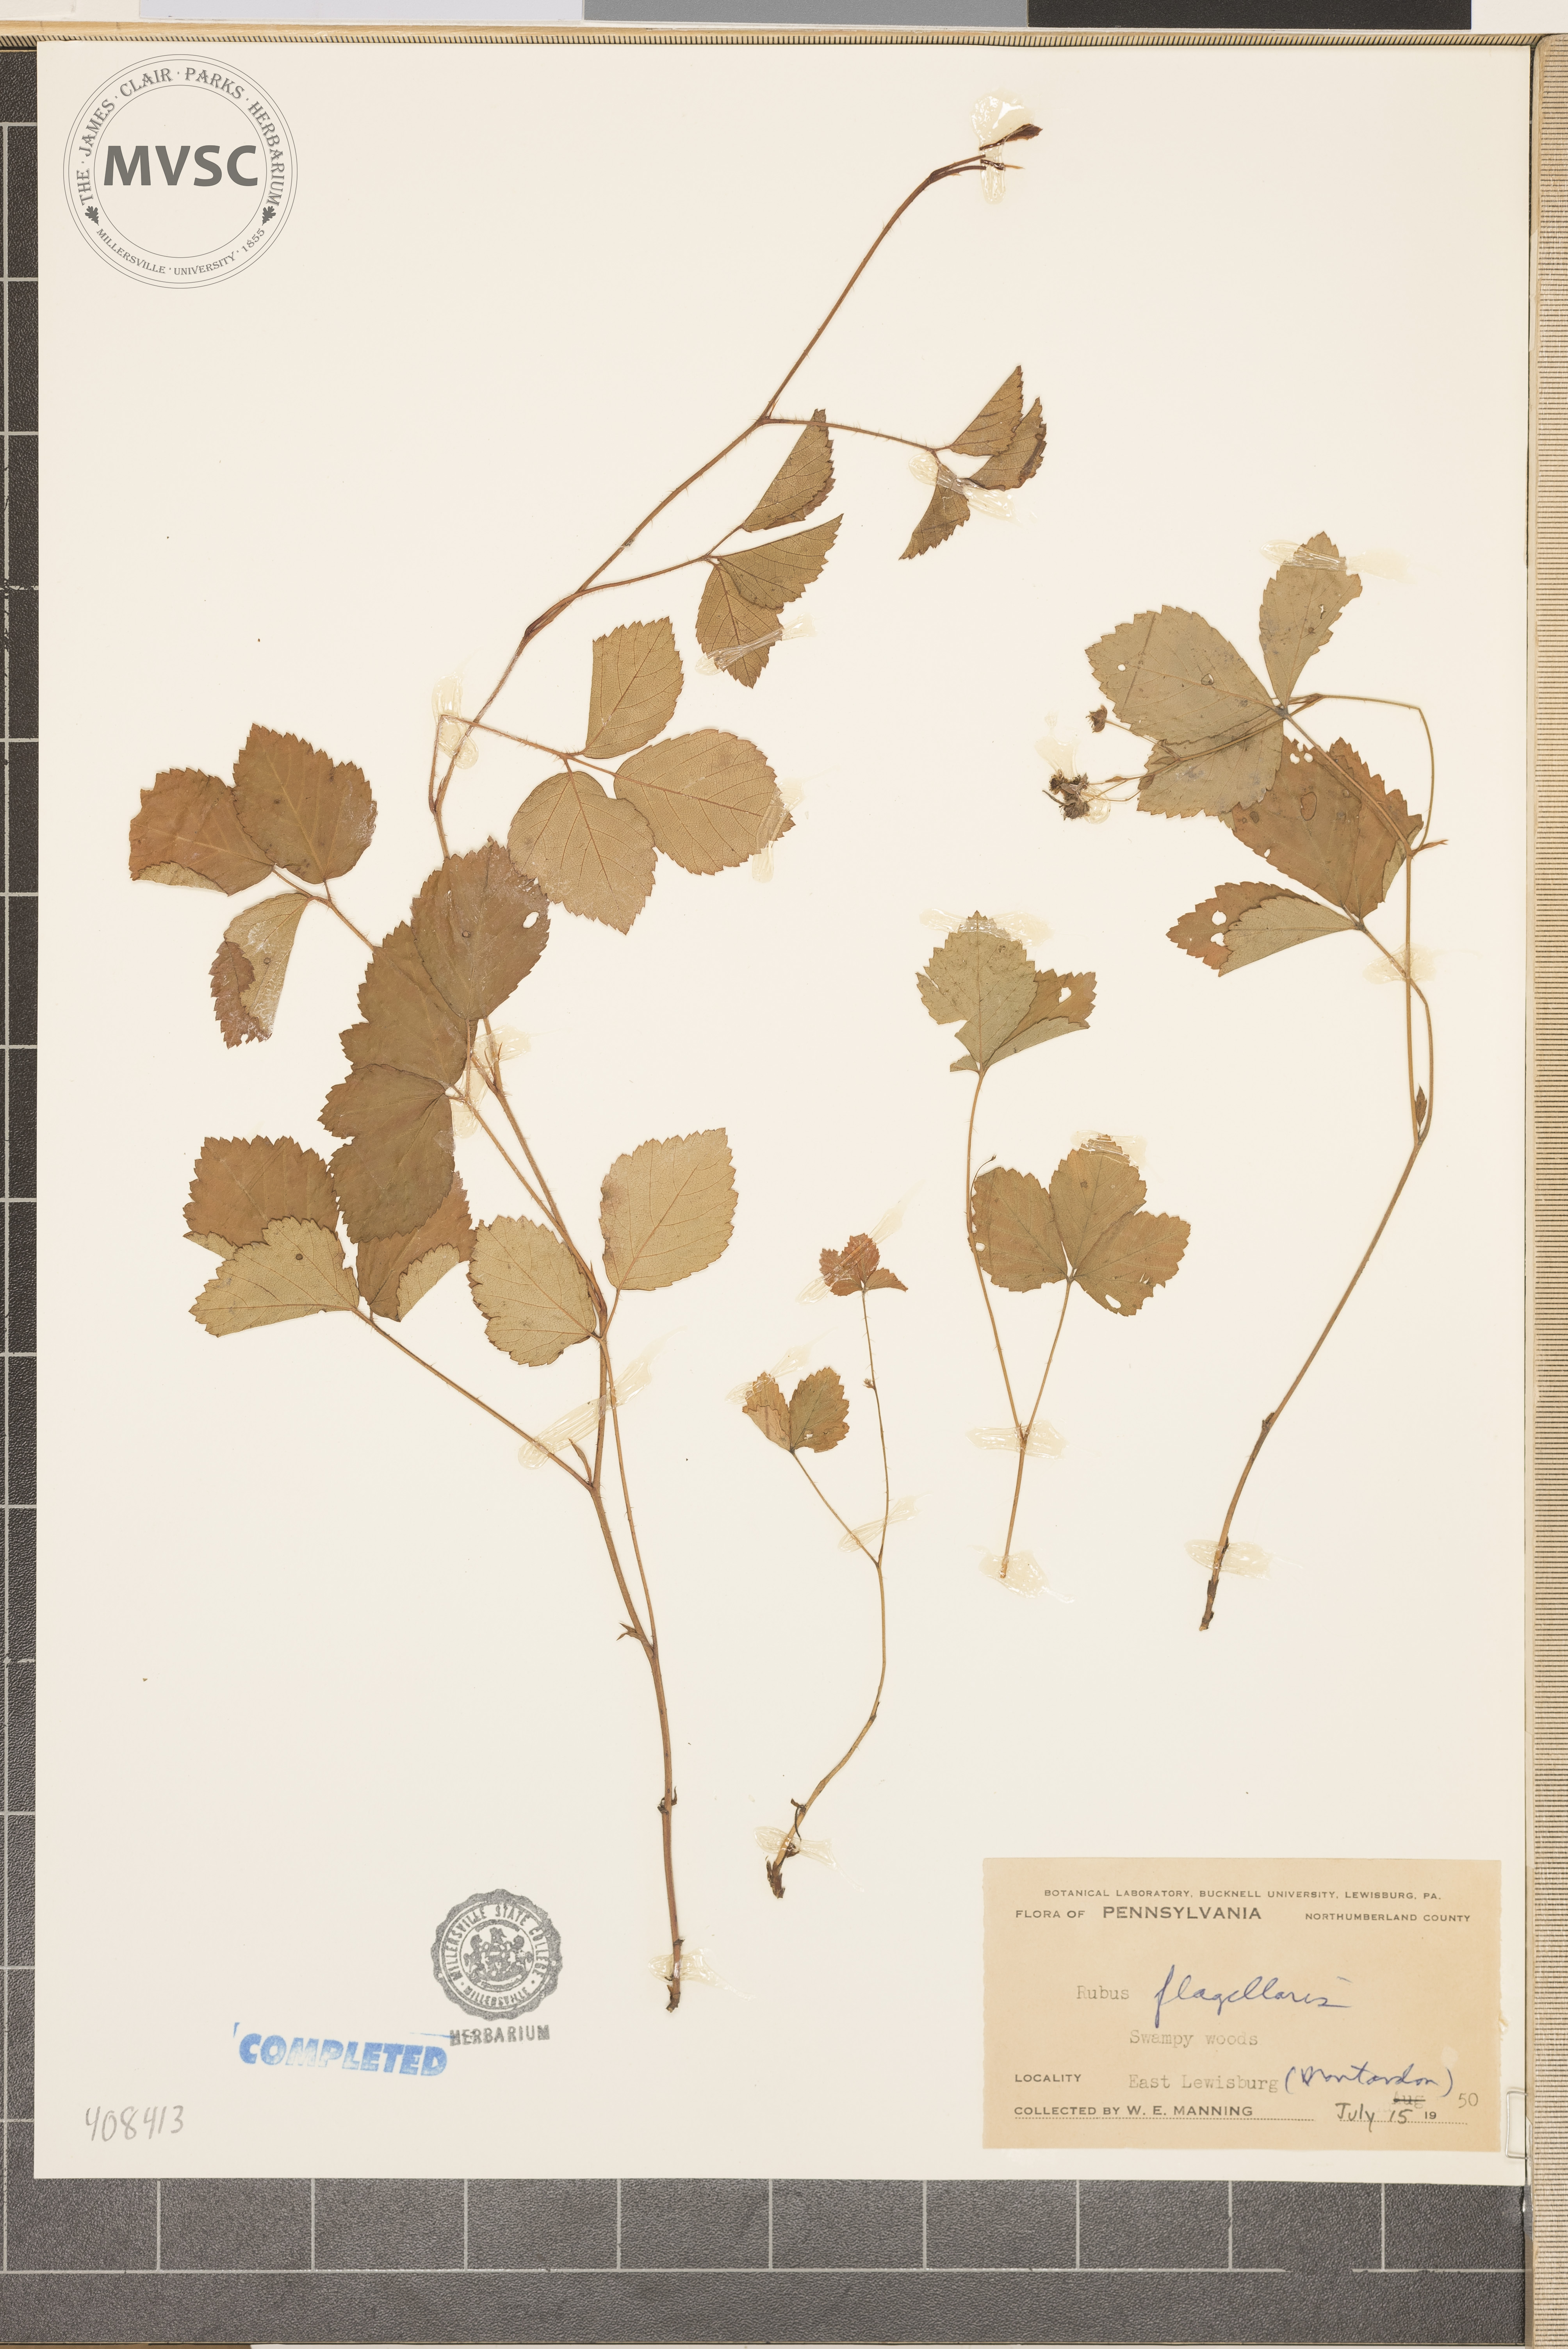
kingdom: Plantae
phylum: Tracheophyta
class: Magnoliopsida
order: Rosales
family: Rosaceae
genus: Rubus
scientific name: Rubus flagellaris
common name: American dewberry
